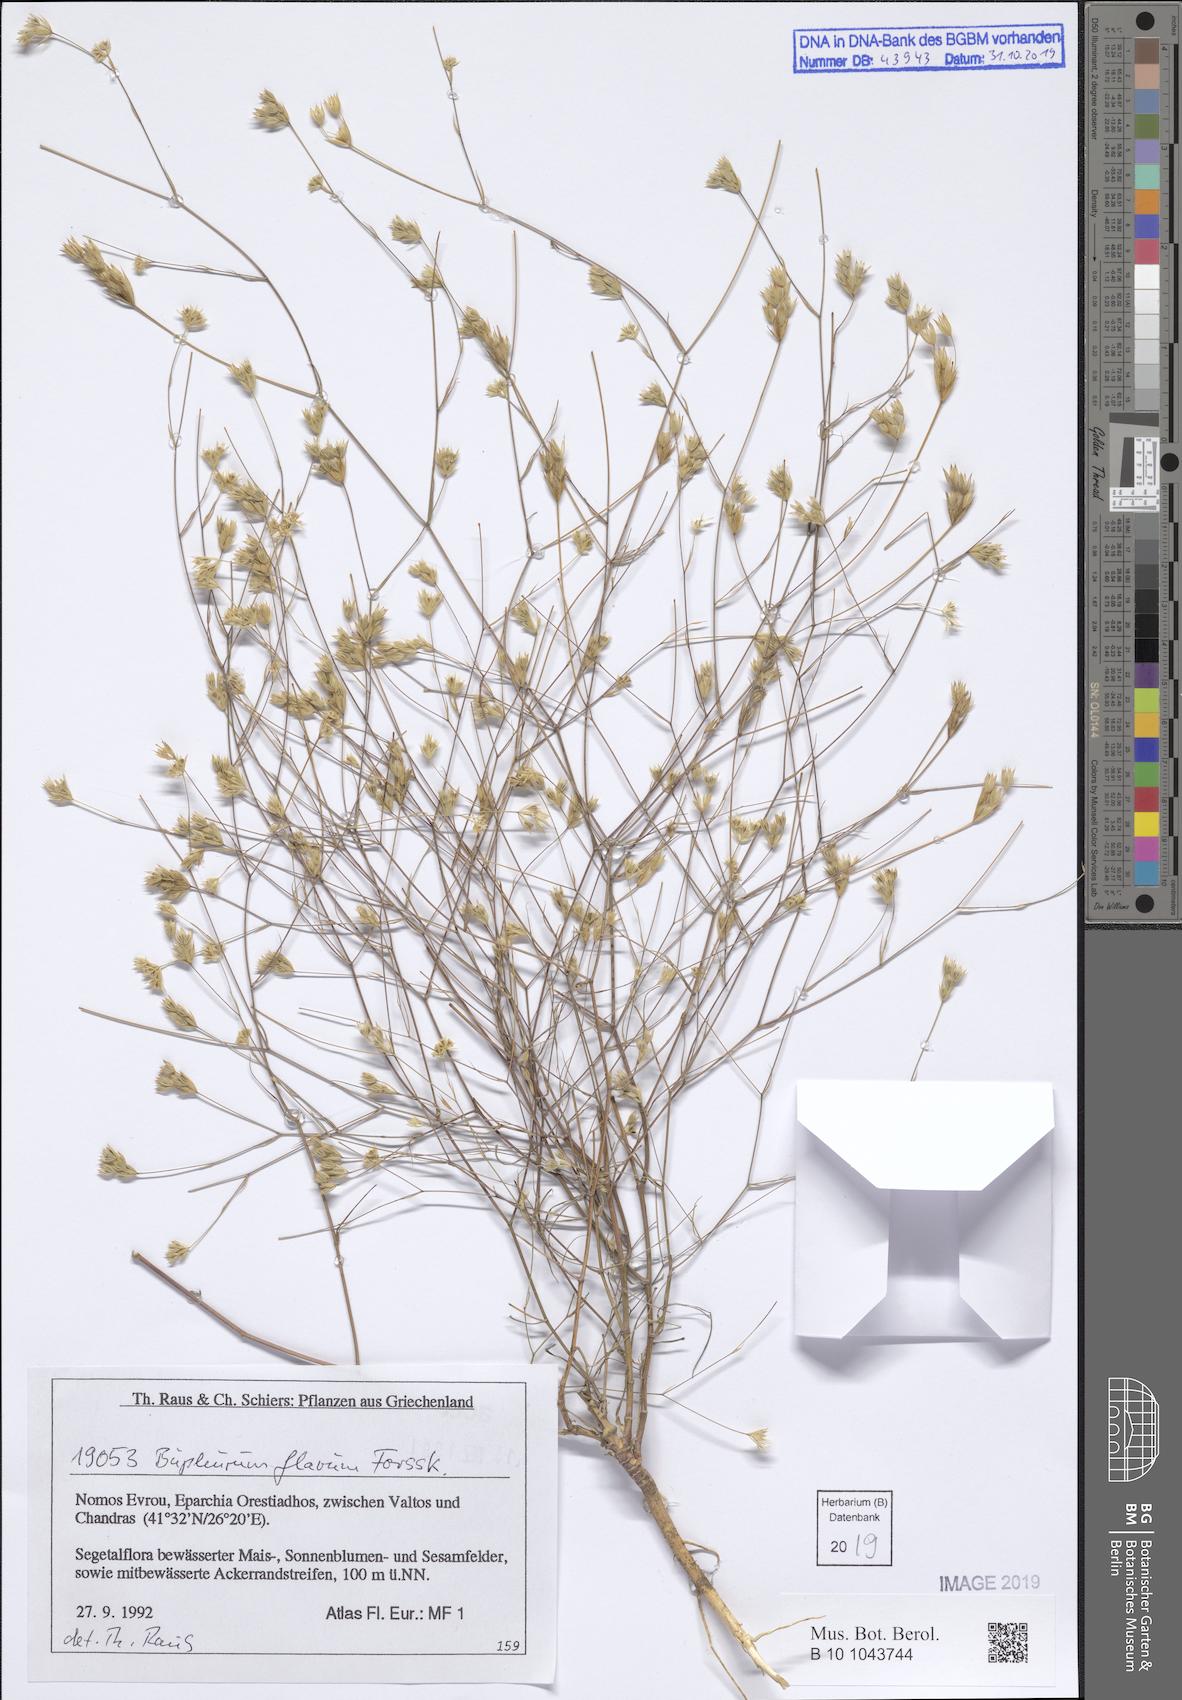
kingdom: Plantae
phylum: Tracheophyta
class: Magnoliopsida
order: Apiales
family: Apiaceae
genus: Bupleurum
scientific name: Bupleurum flavum
